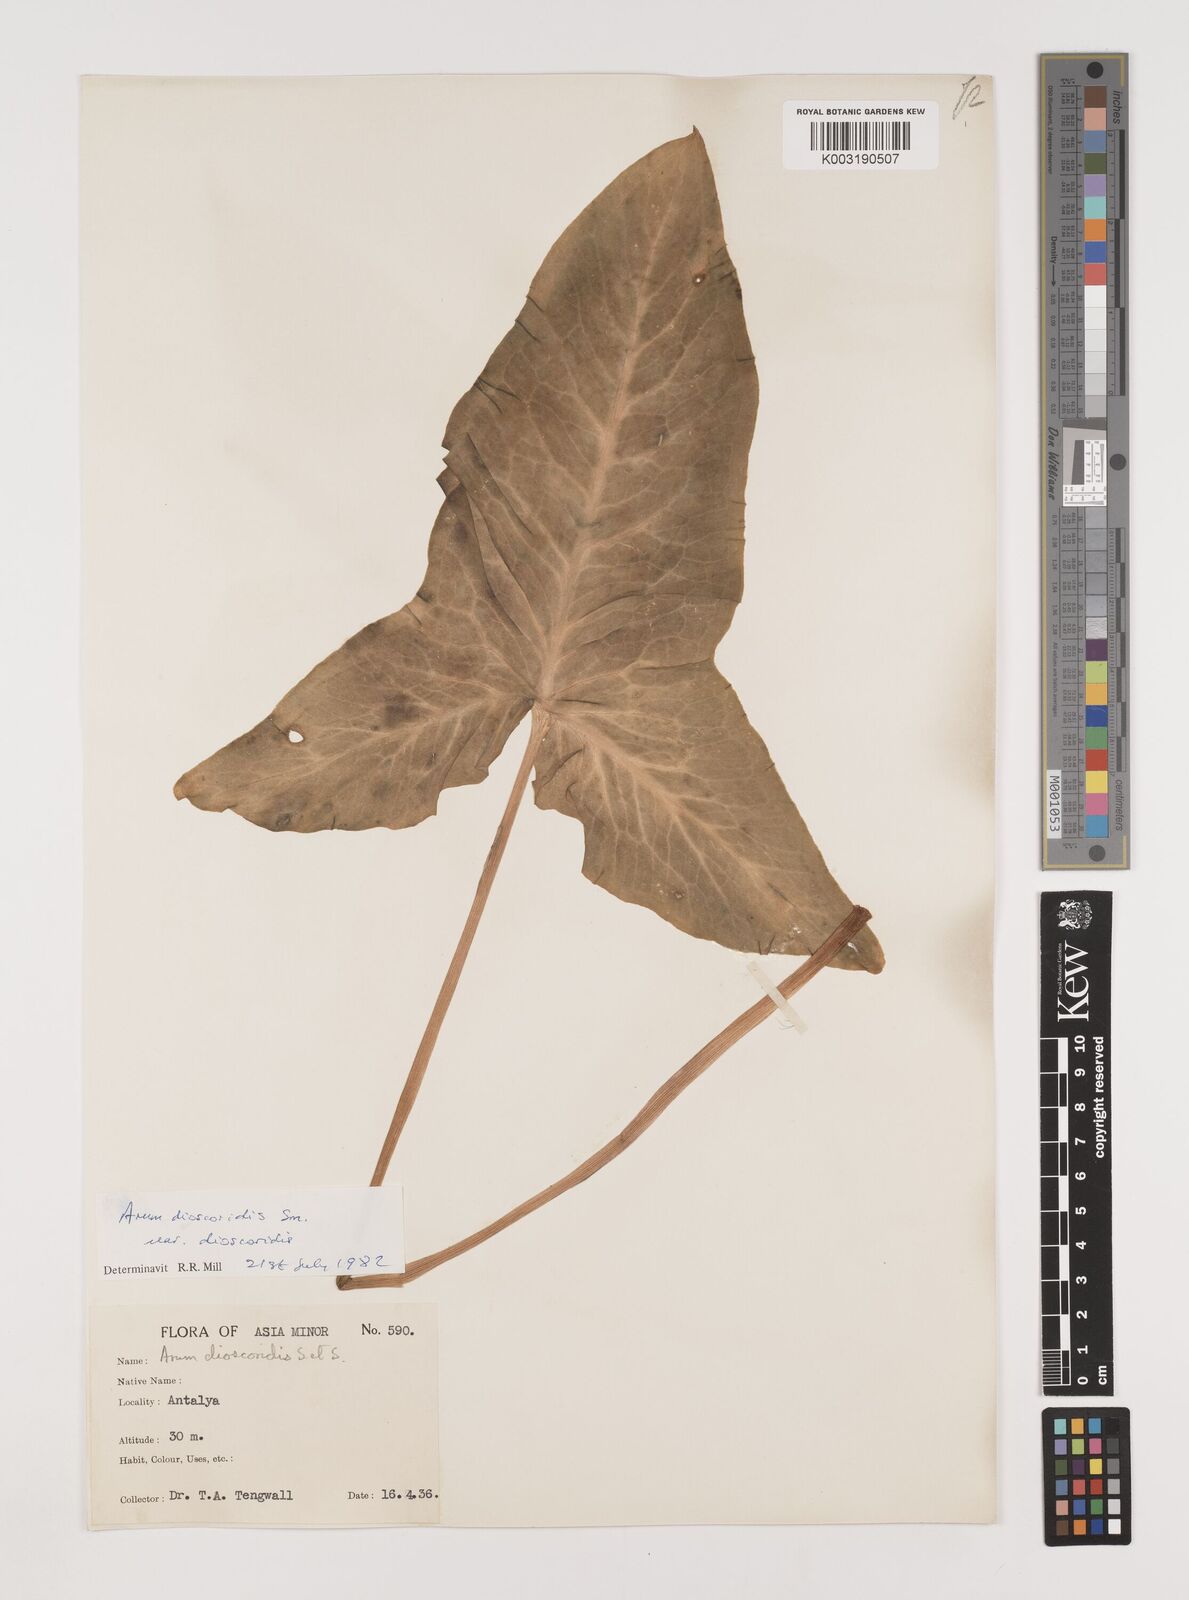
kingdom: Plantae
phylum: Tracheophyta
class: Liliopsida
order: Alismatales
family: Araceae
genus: Arum
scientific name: Arum dioscoridis
